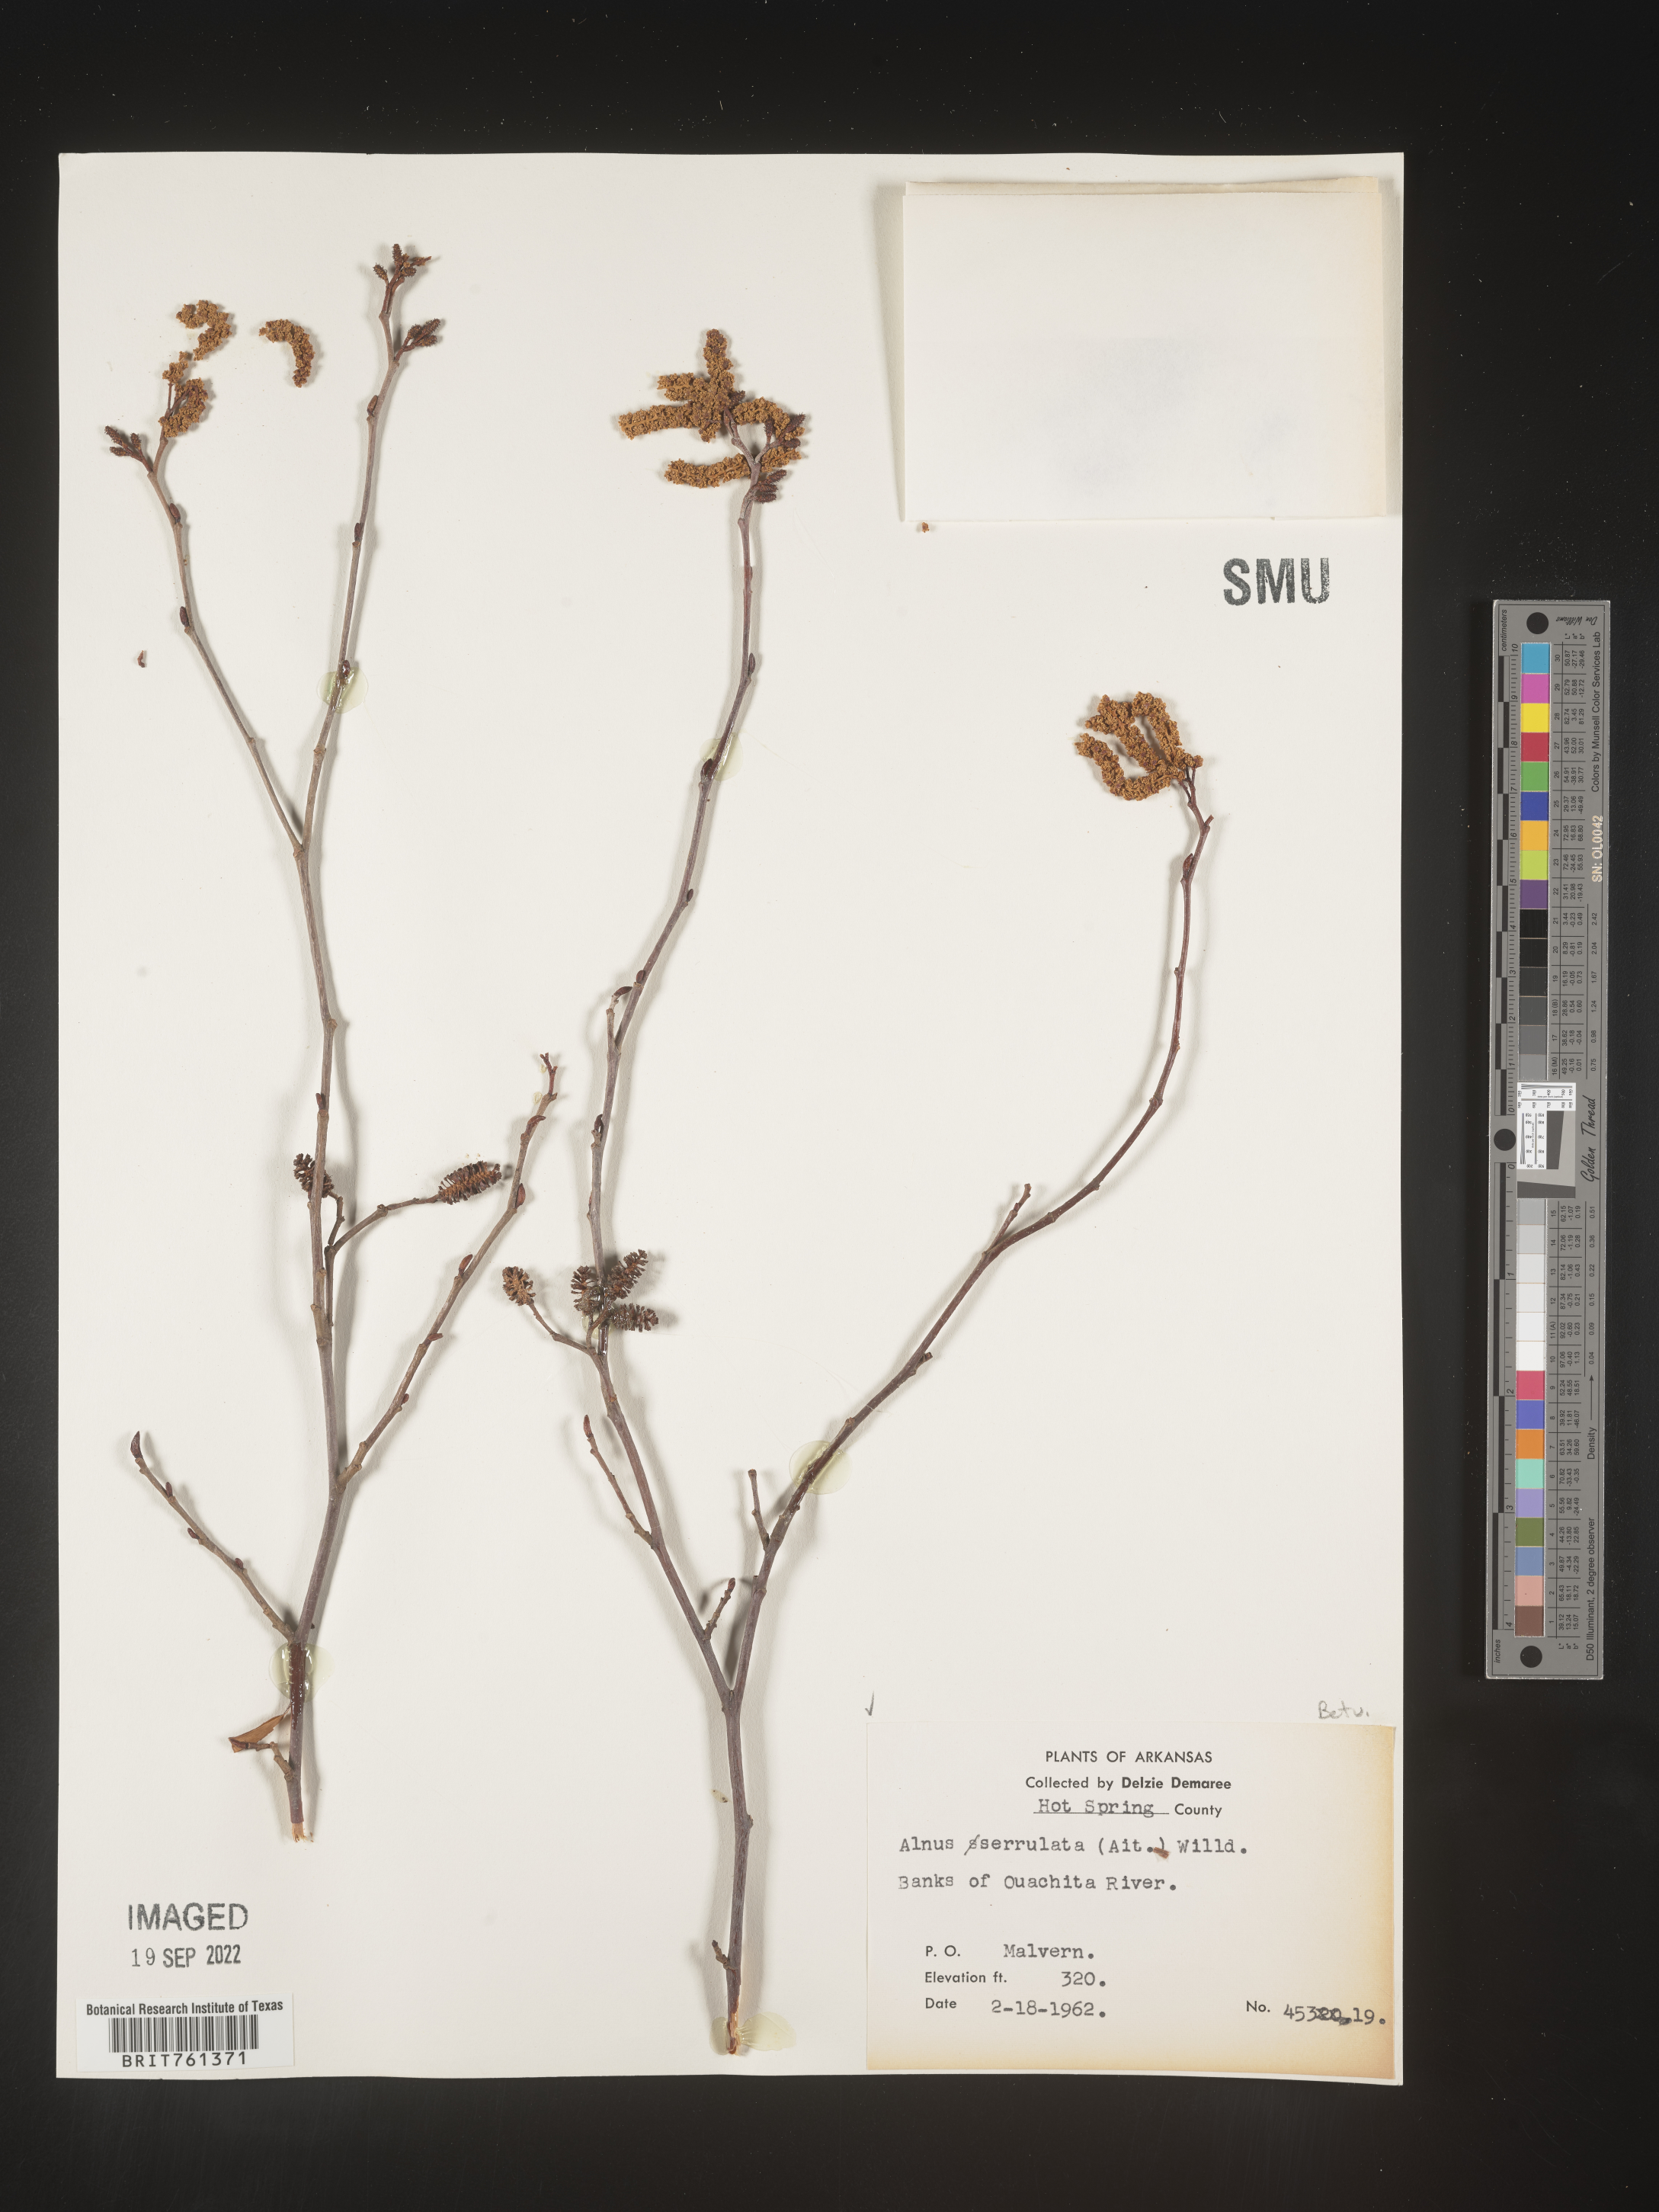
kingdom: Plantae
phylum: Tracheophyta
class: Magnoliopsida
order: Fagales
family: Betulaceae
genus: Alnus
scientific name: Alnus serrulata
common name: Hazel alder
